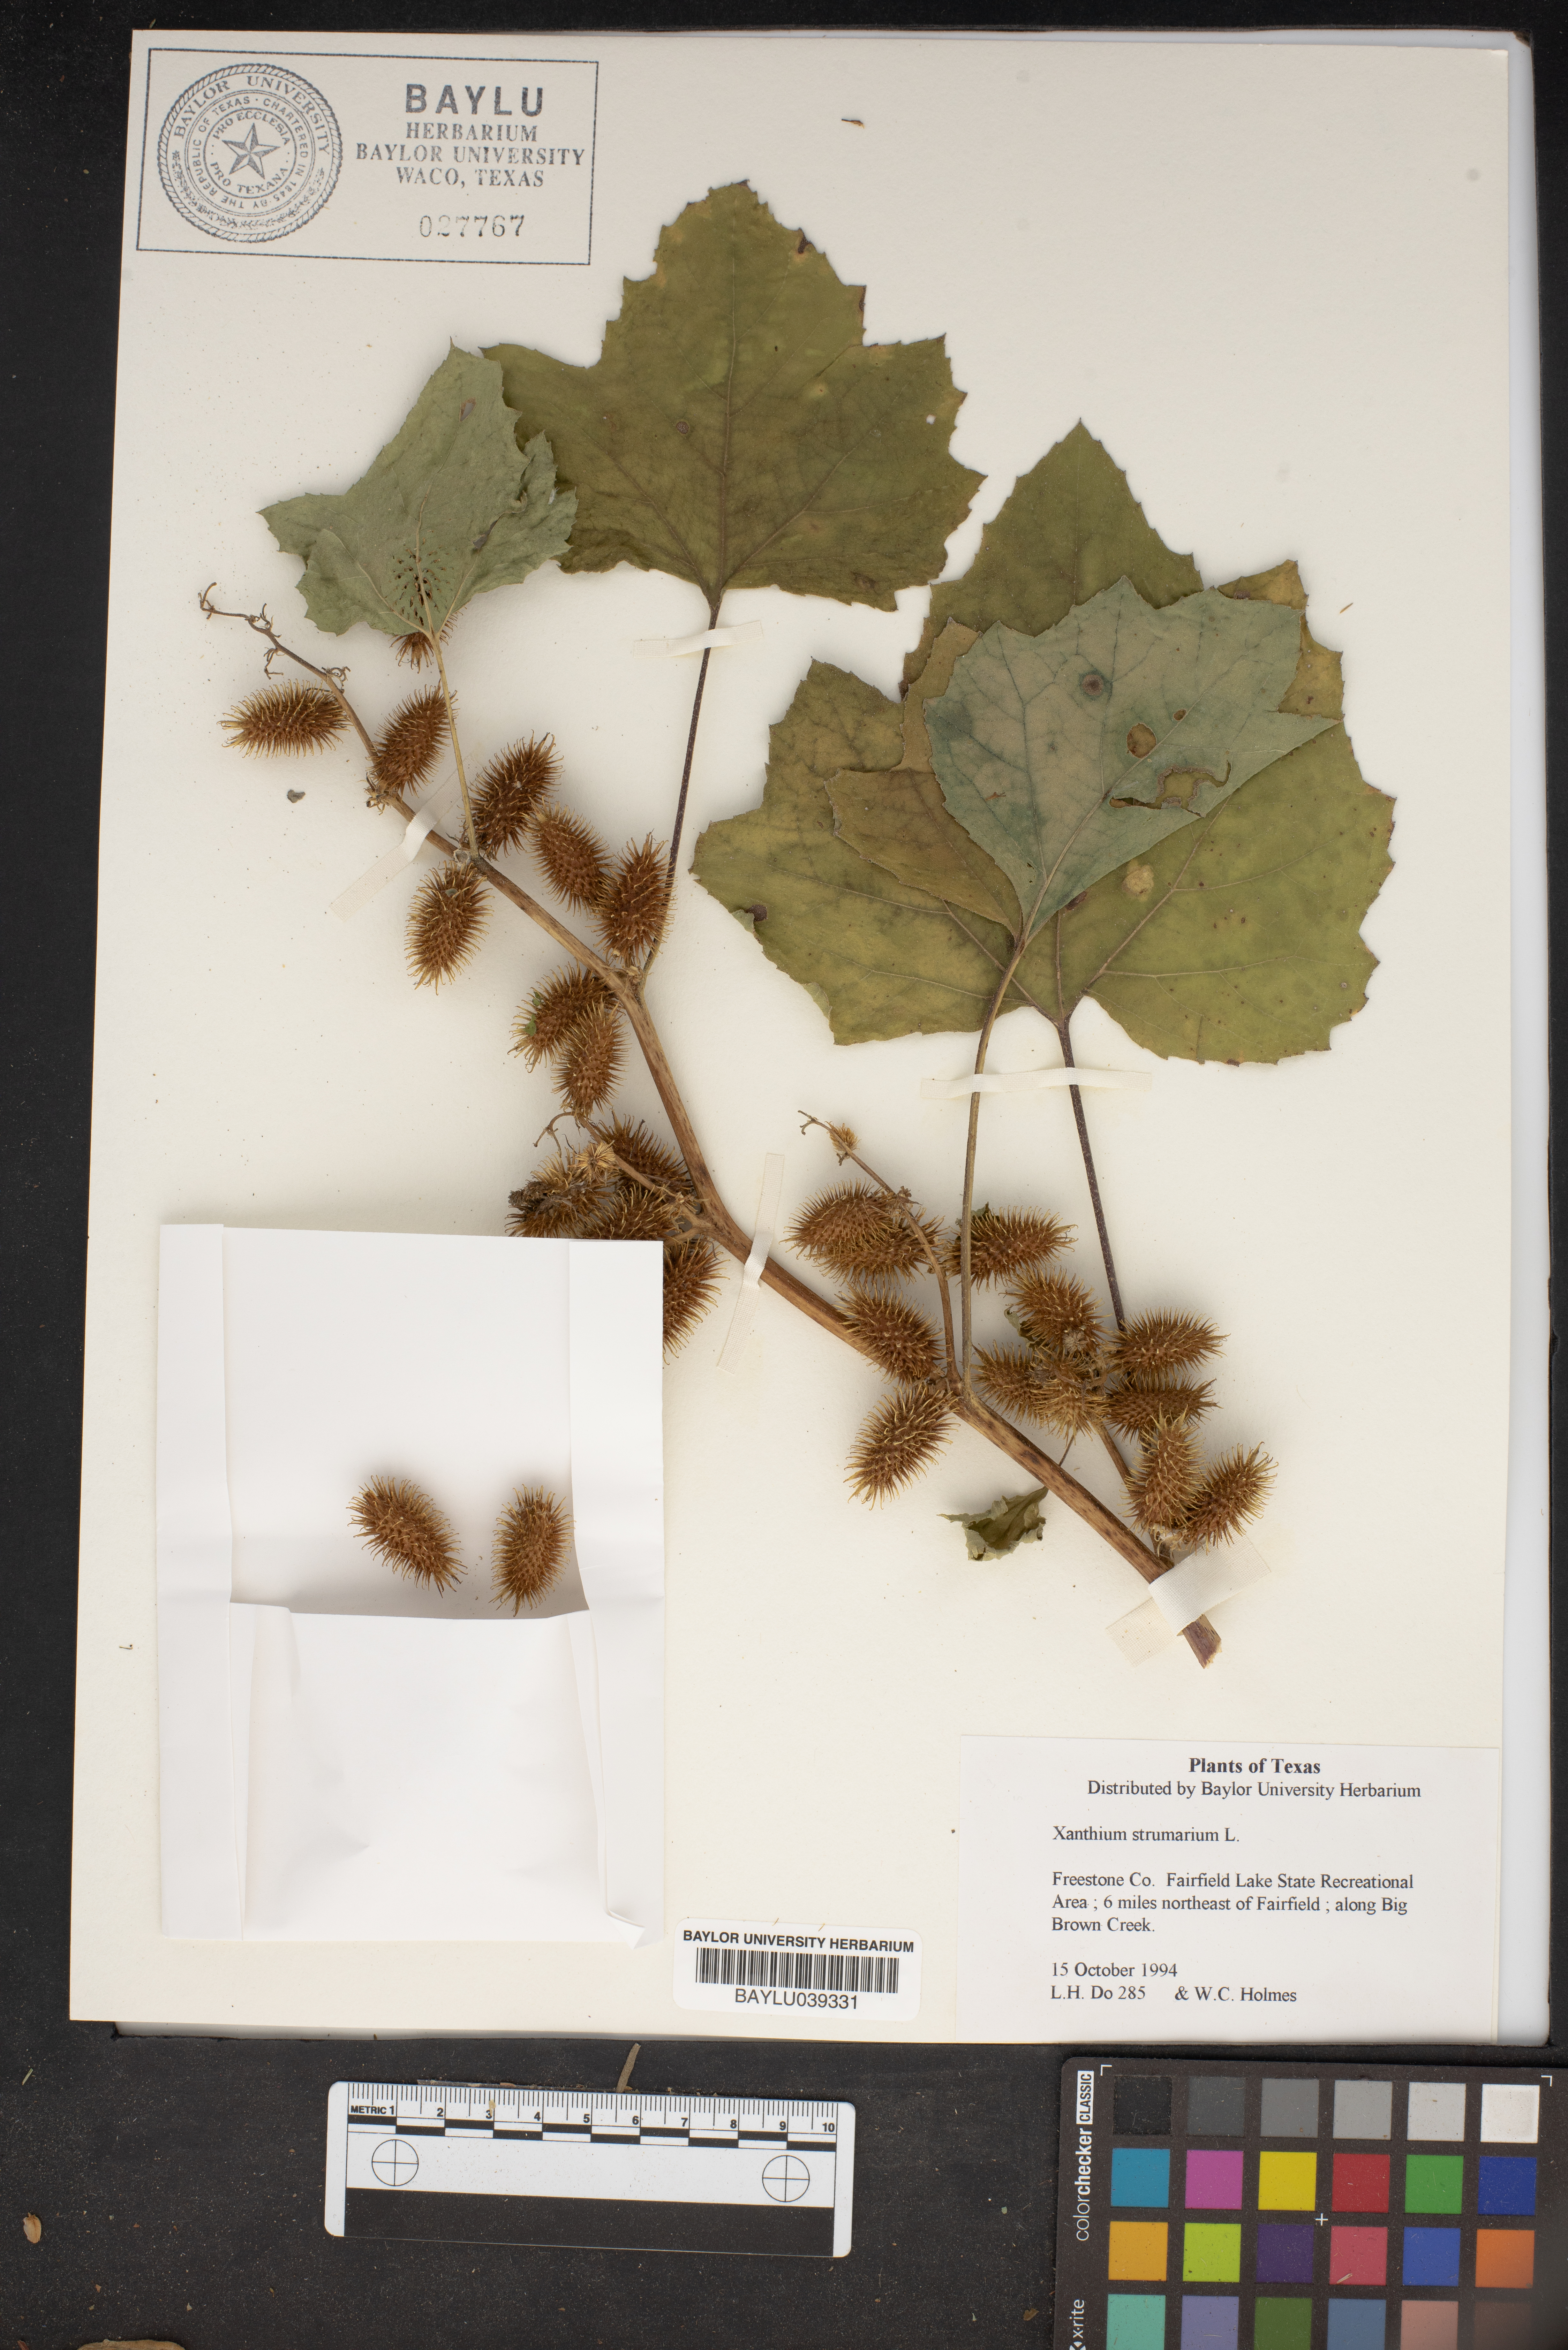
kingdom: Plantae
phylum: Tracheophyta
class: Magnoliopsida
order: Asterales
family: Asteraceae
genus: Xanthium
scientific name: Xanthium strumarium
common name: Rough cocklebur
